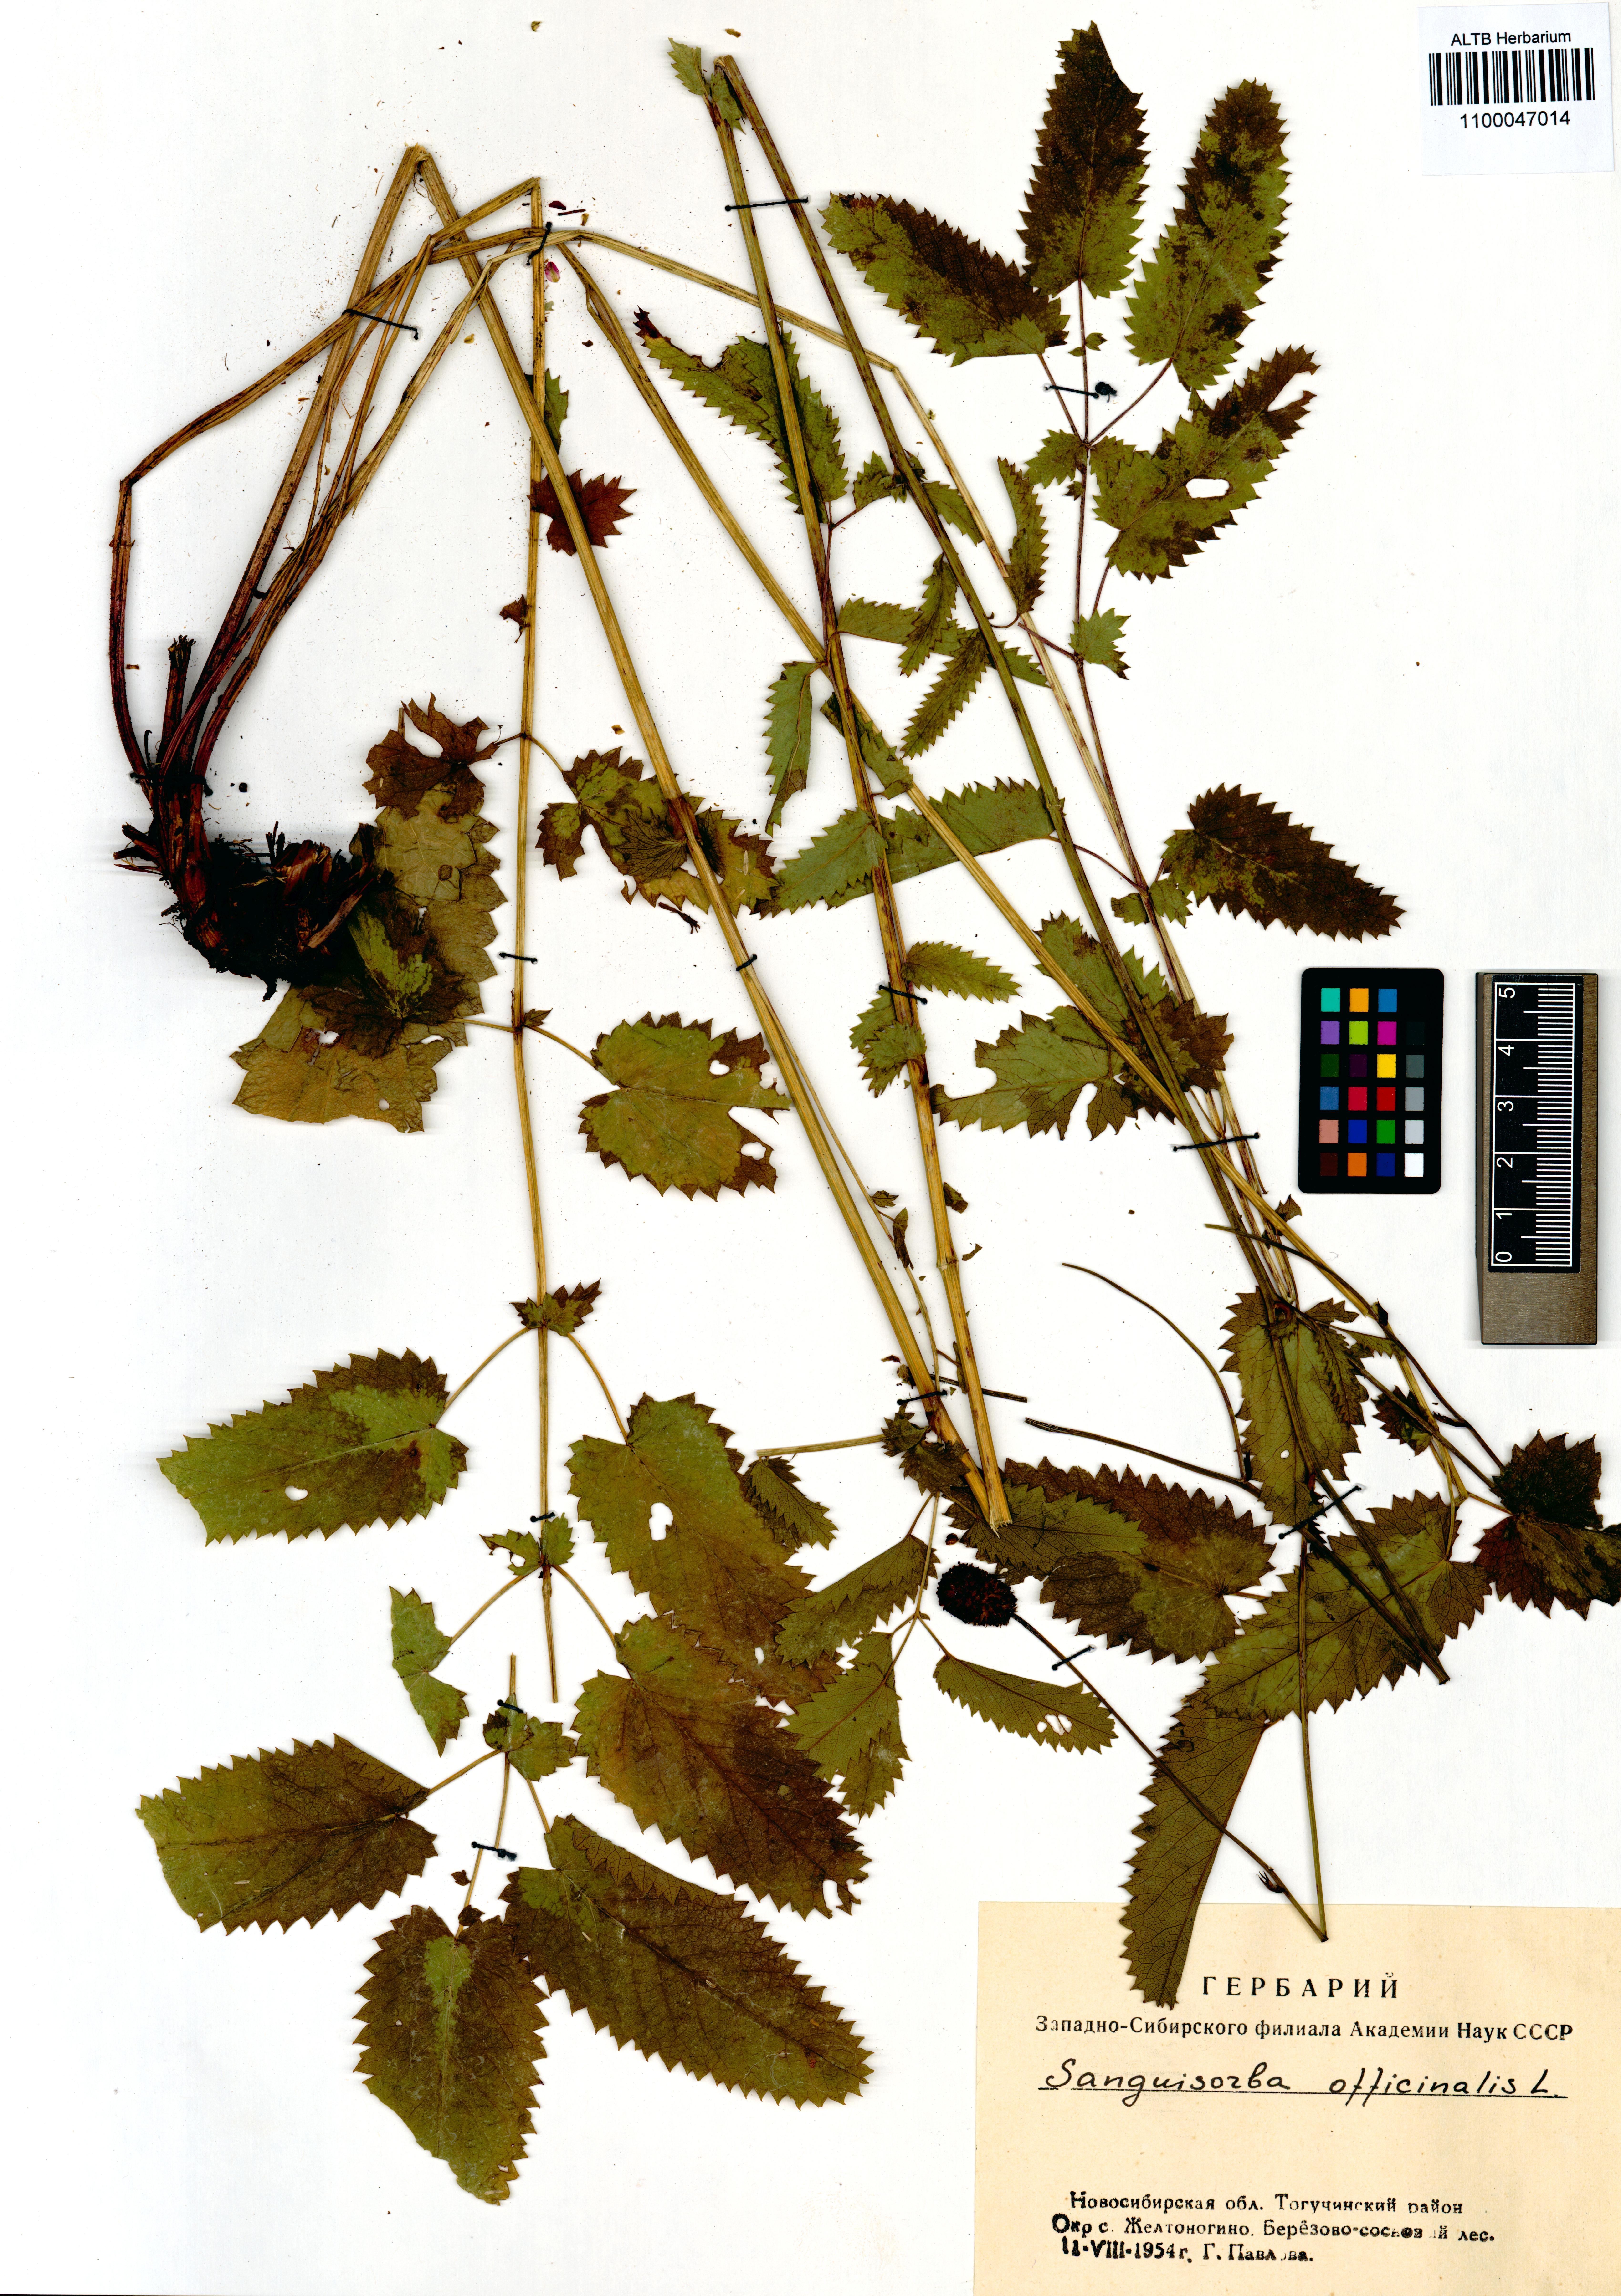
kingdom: Plantae
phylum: Tracheophyta
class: Magnoliopsida
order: Rosales
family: Rosaceae
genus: Sanguisorba
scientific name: Sanguisorba officinalis
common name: Great burnet
